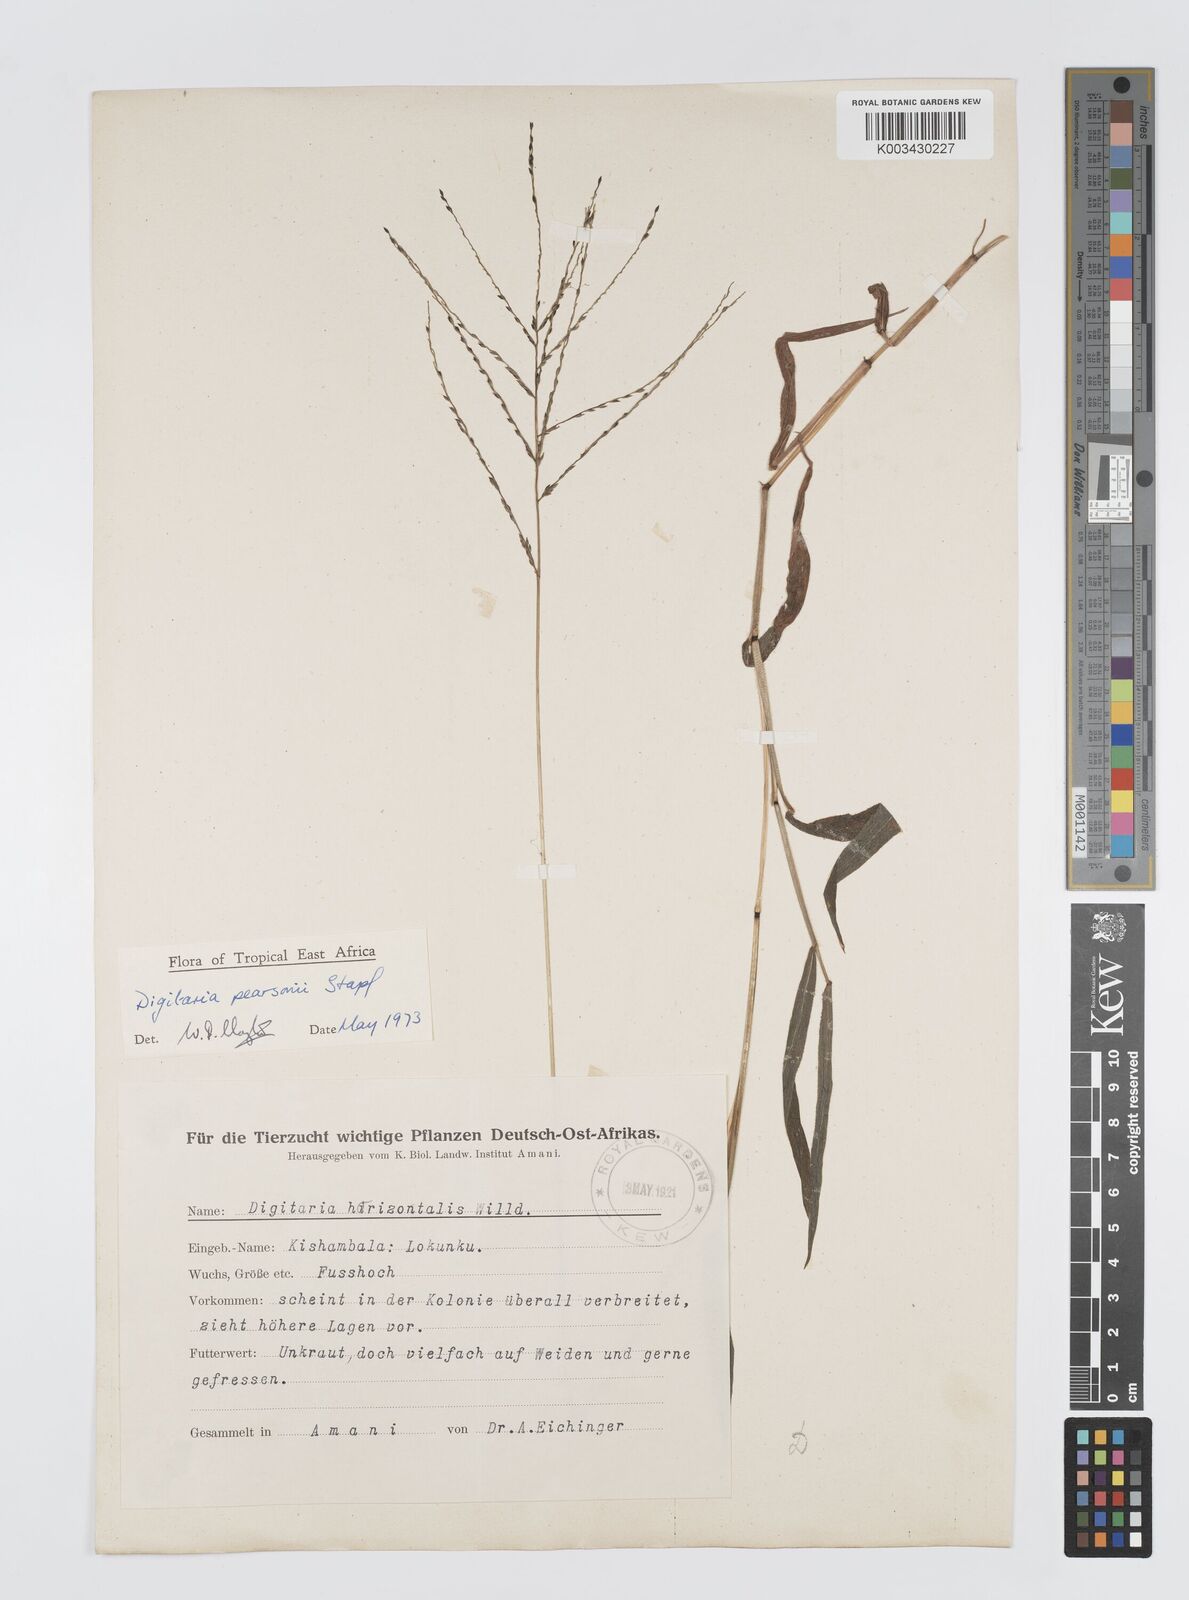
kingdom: Plantae
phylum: Tracheophyta
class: Liliopsida
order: Poales
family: Poaceae
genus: Digitaria
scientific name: Digitaria pearsonii
